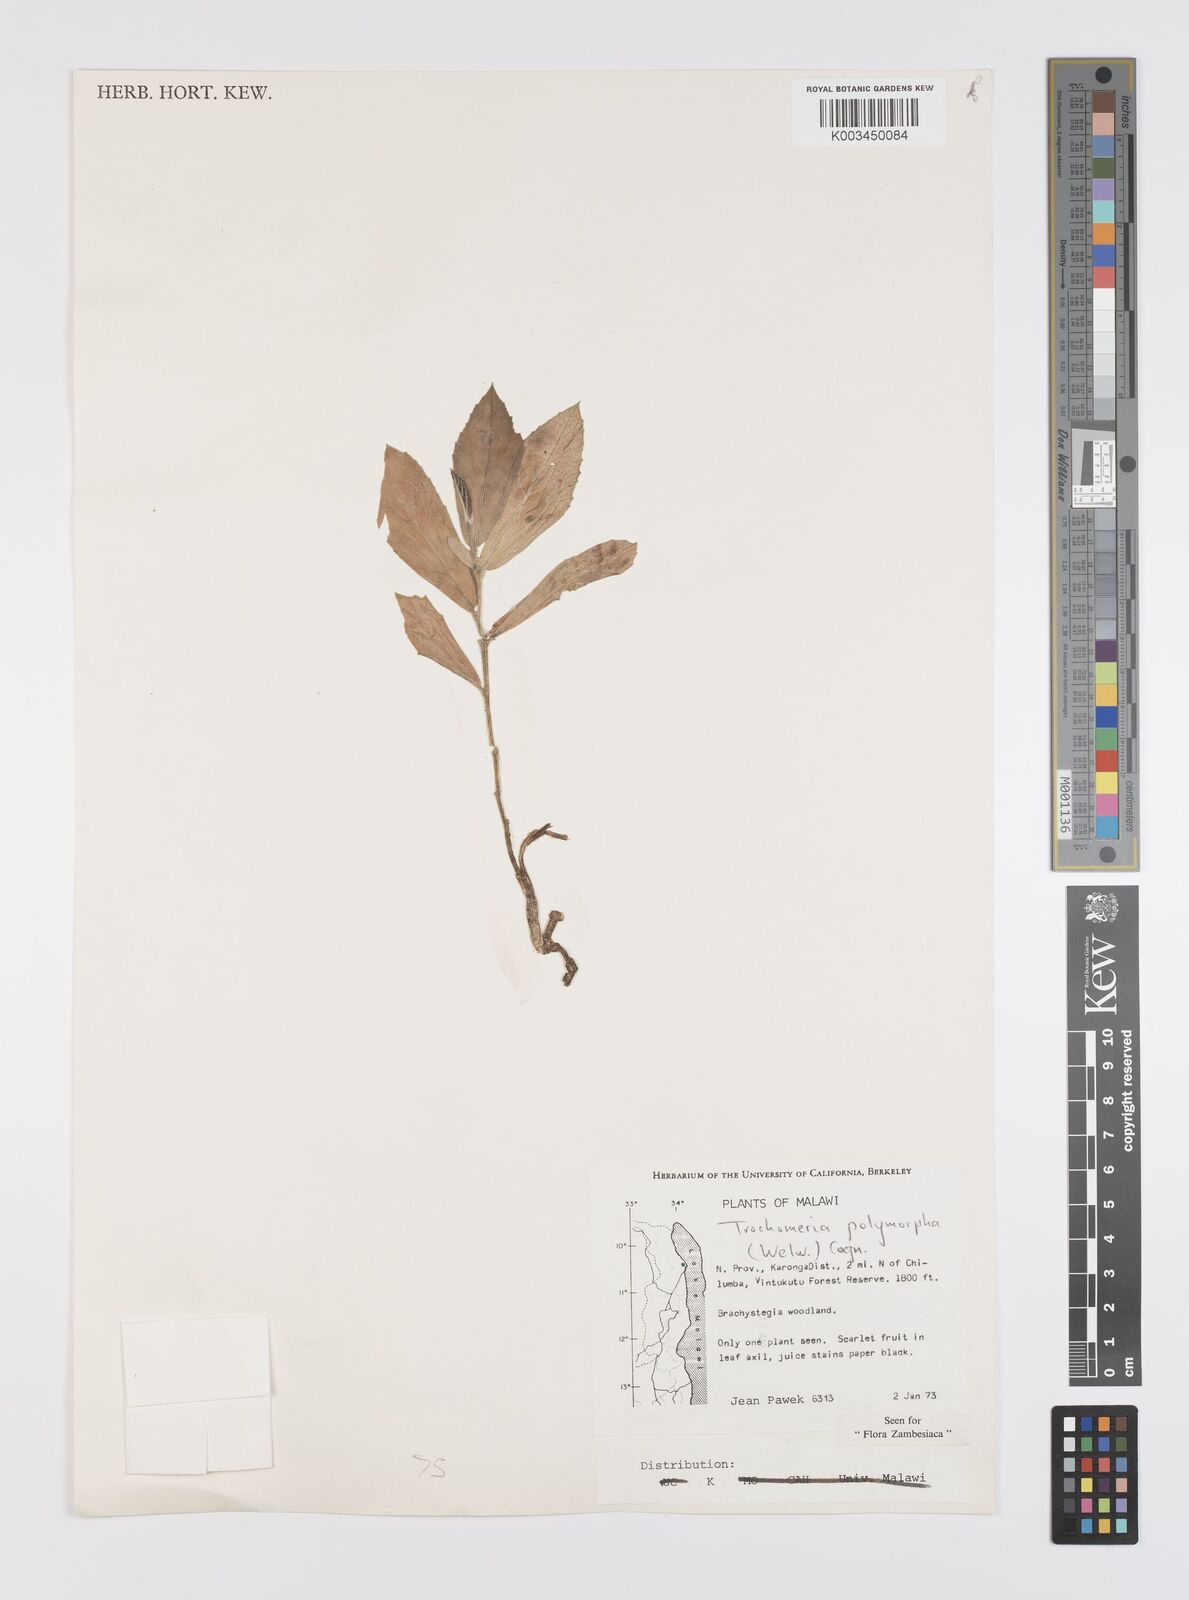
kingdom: Plantae
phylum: Tracheophyta
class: Magnoliopsida
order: Cucurbitales
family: Cucurbitaceae
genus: Trochomeria
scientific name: Trochomeria polymorpha
